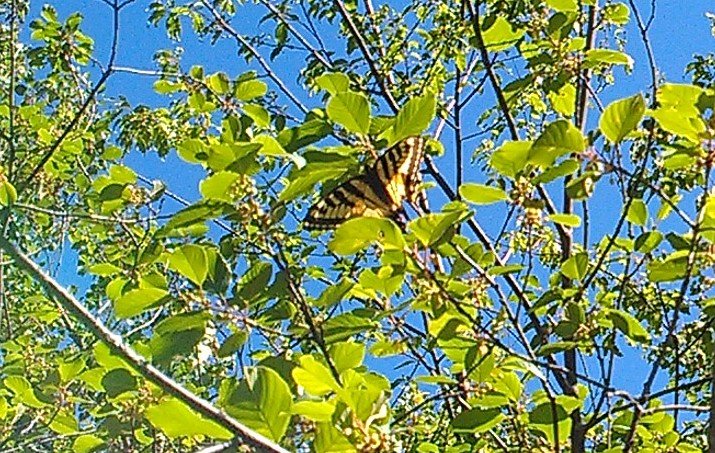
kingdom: Animalia
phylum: Arthropoda
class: Insecta
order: Lepidoptera
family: Papilionidae
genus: Pterourus
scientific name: Pterourus canadensis
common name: Canadian Tiger Swallowtail
